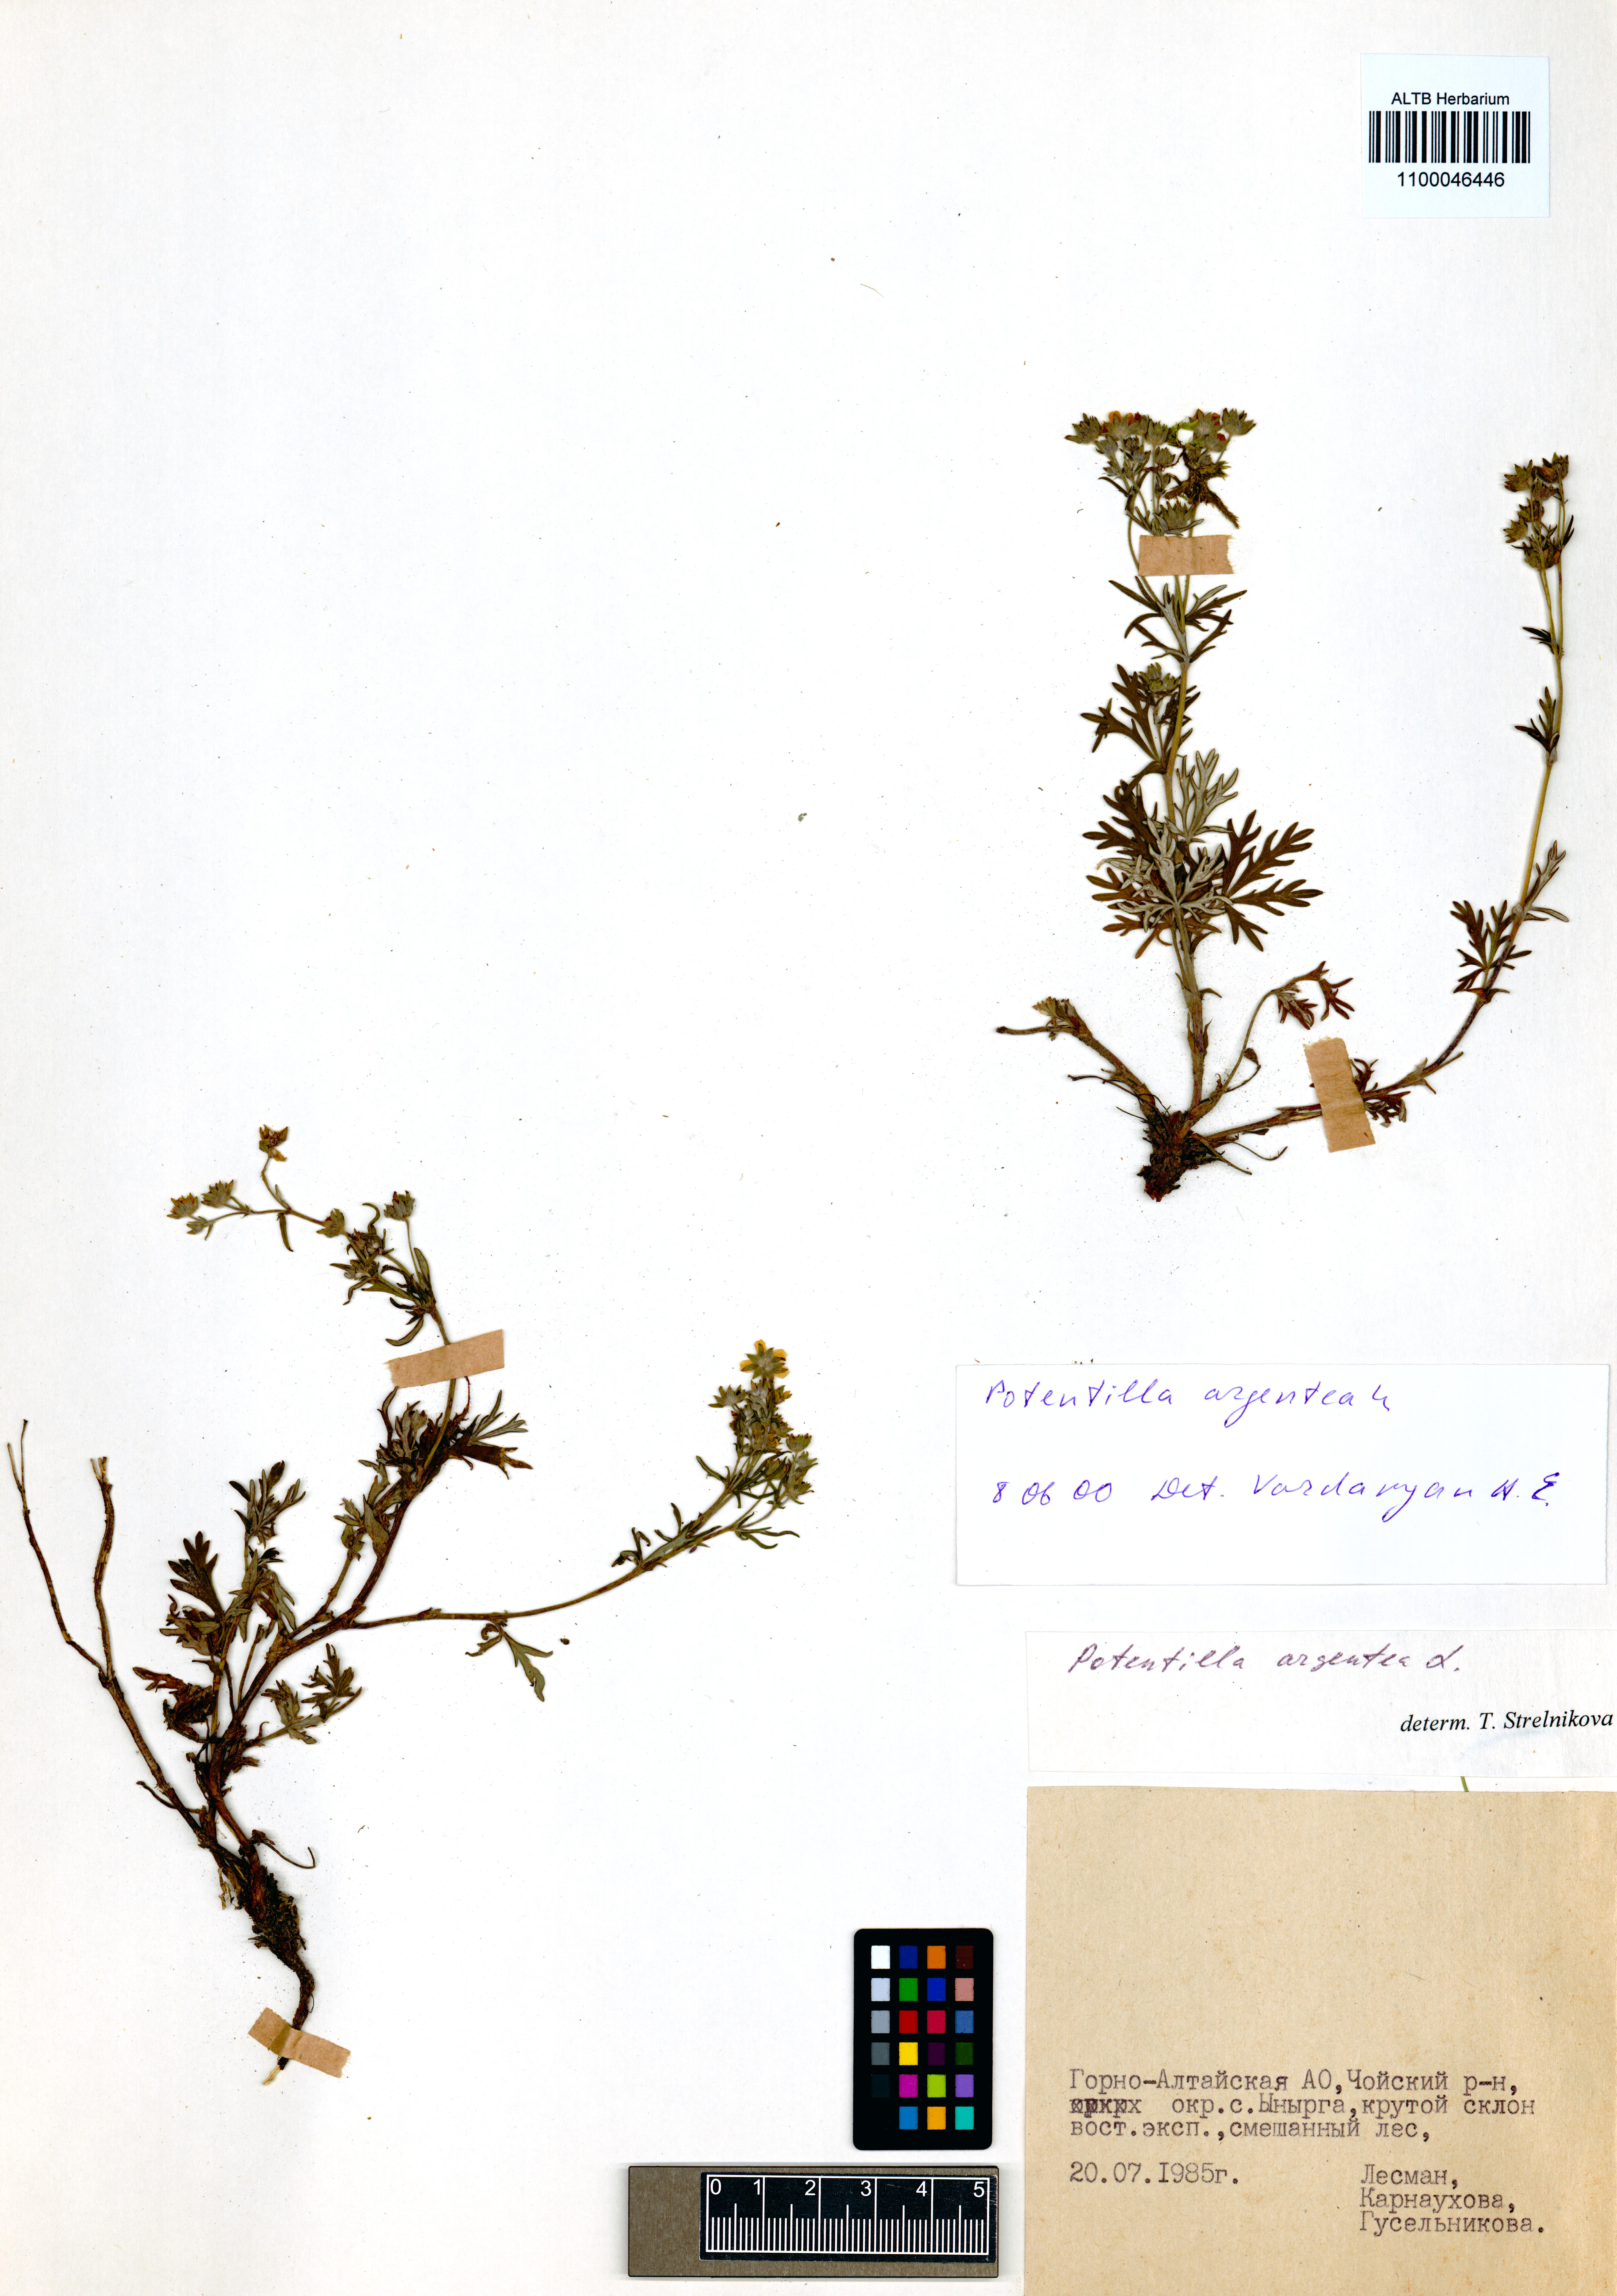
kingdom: Plantae
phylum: Tracheophyta
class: Magnoliopsida
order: Rosales
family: Rosaceae
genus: Potentilla
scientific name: Potentilla argentea
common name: Hoary cinquefoil
